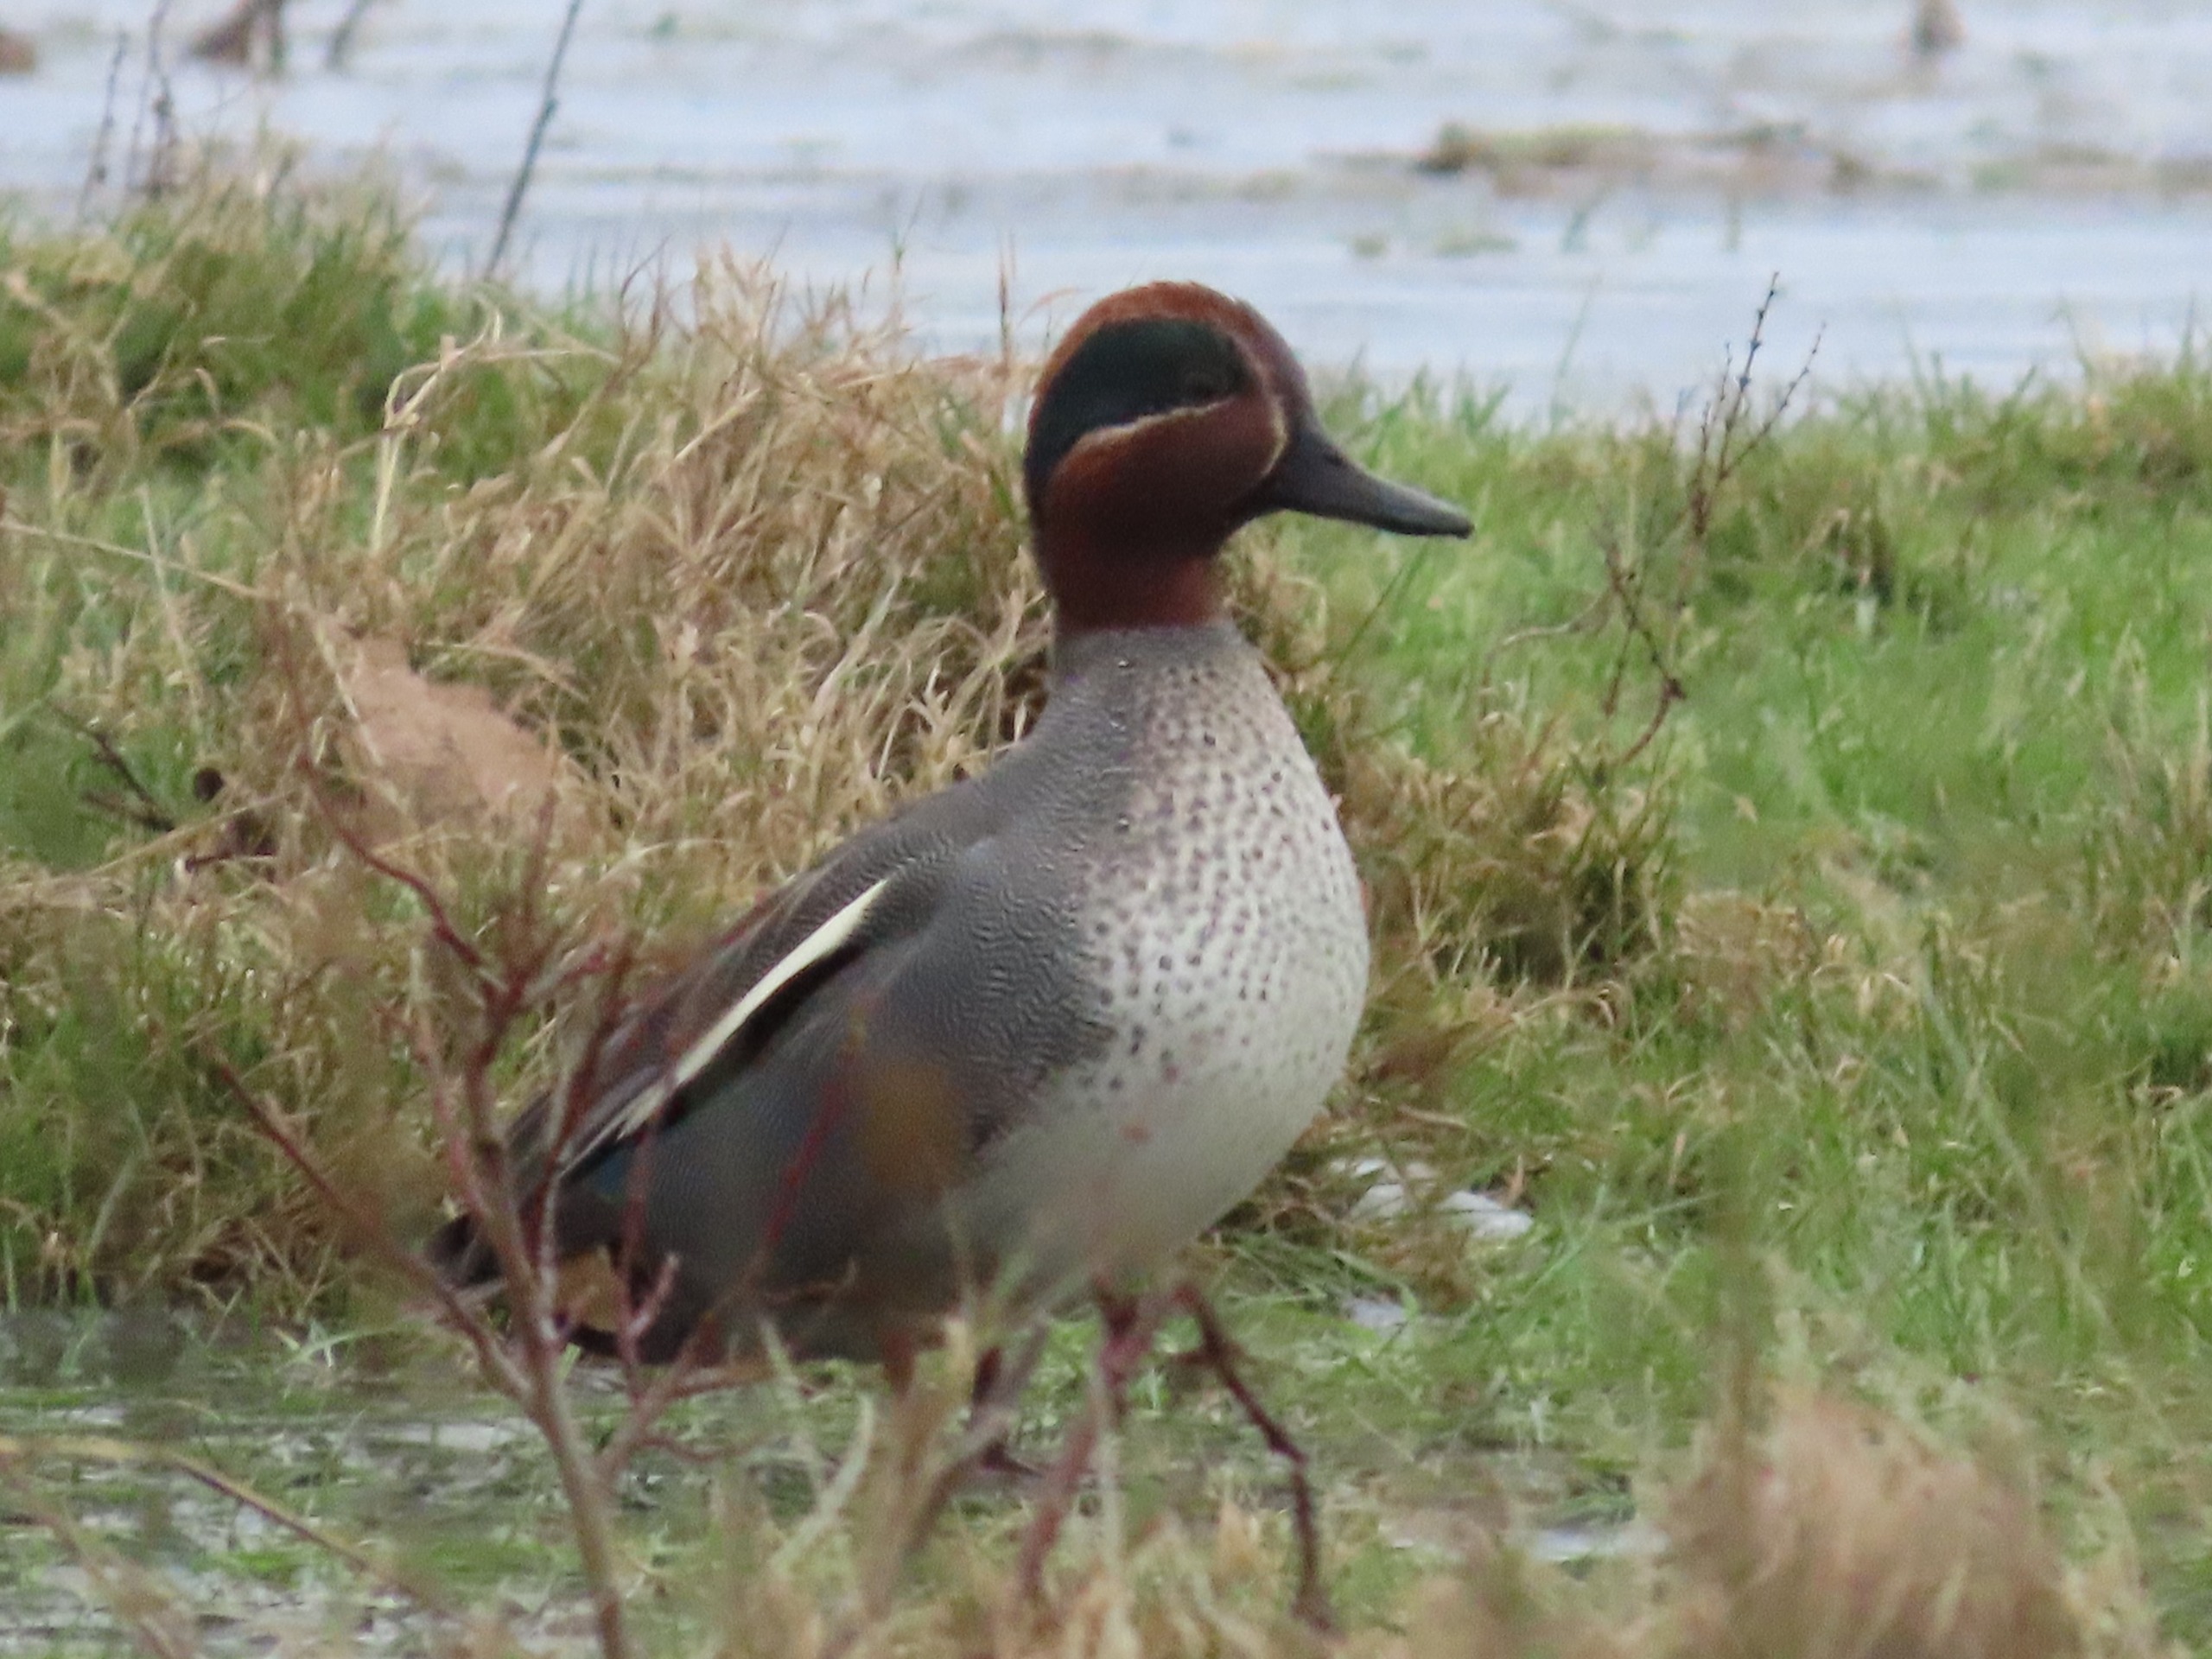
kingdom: Animalia
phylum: Chordata
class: Aves
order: Anseriformes
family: Anatidae
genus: Anas
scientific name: Anas crecca
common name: Krikand
